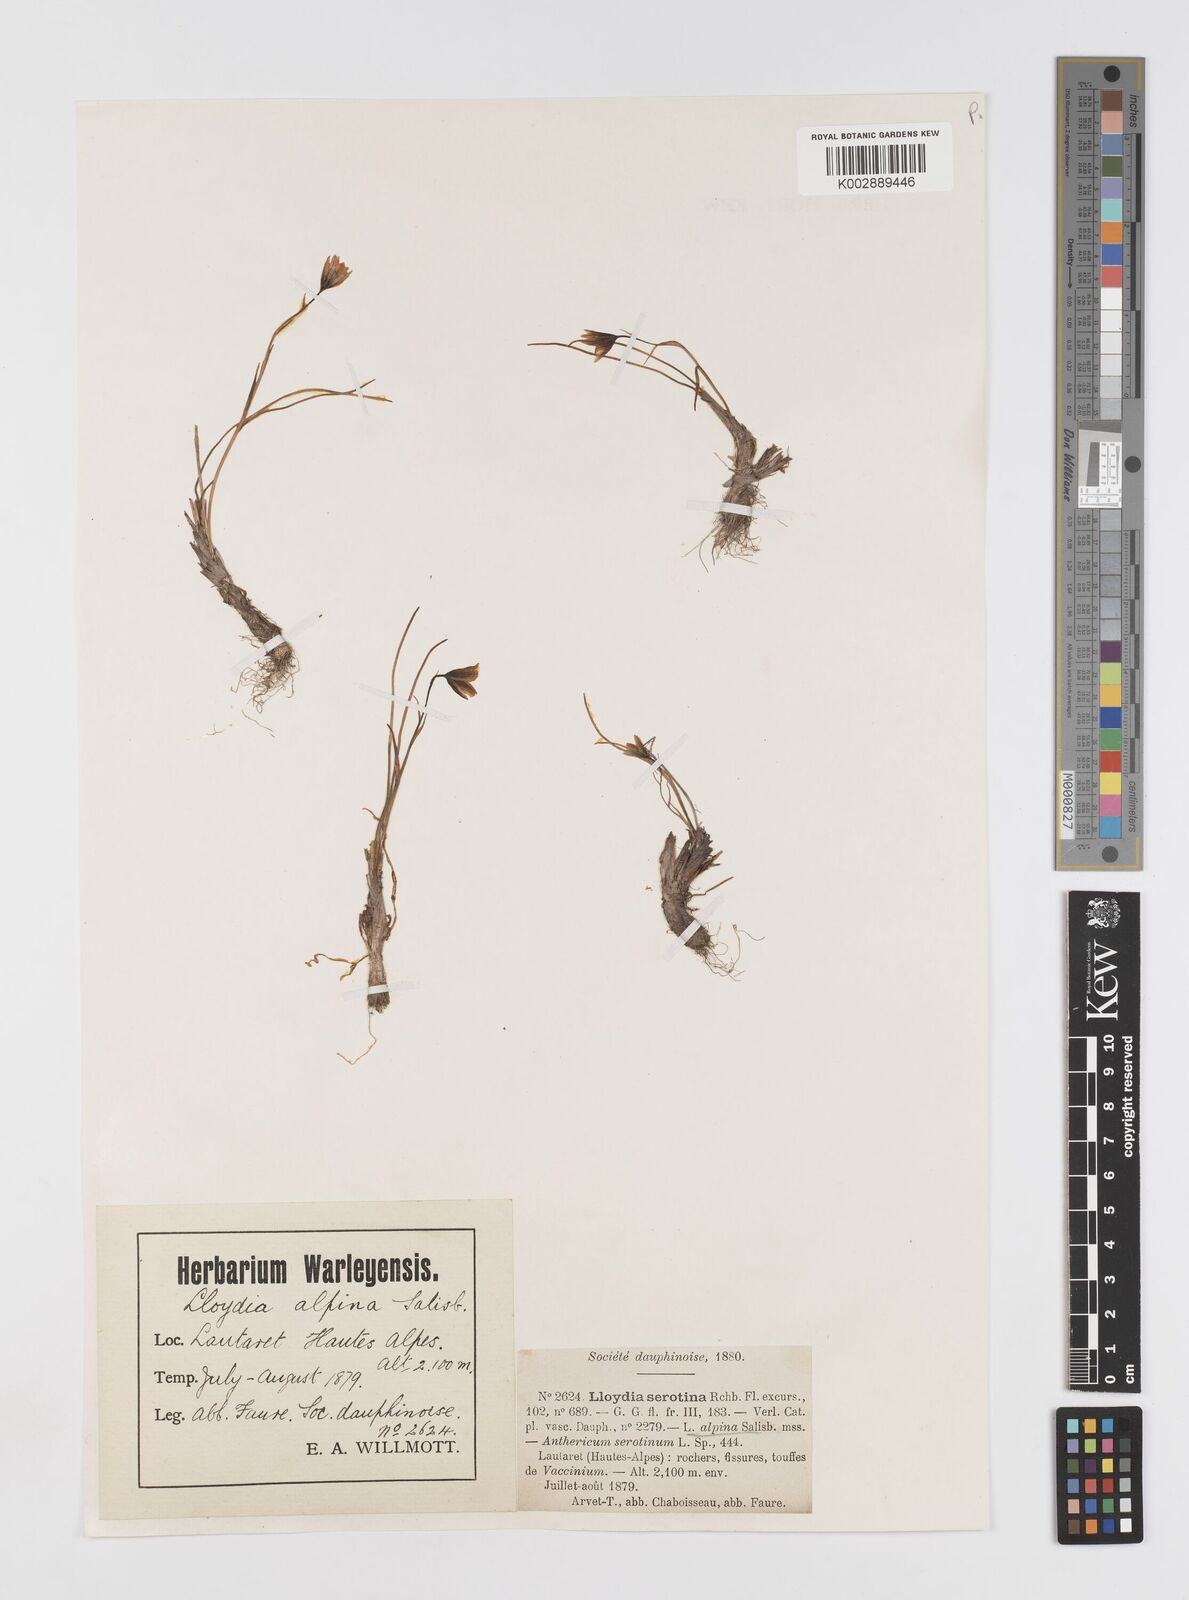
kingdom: Plantae
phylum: Tracheophyta
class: Liliopsida
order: Liliales
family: Liliaceae
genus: Gagea
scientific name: Gagea
